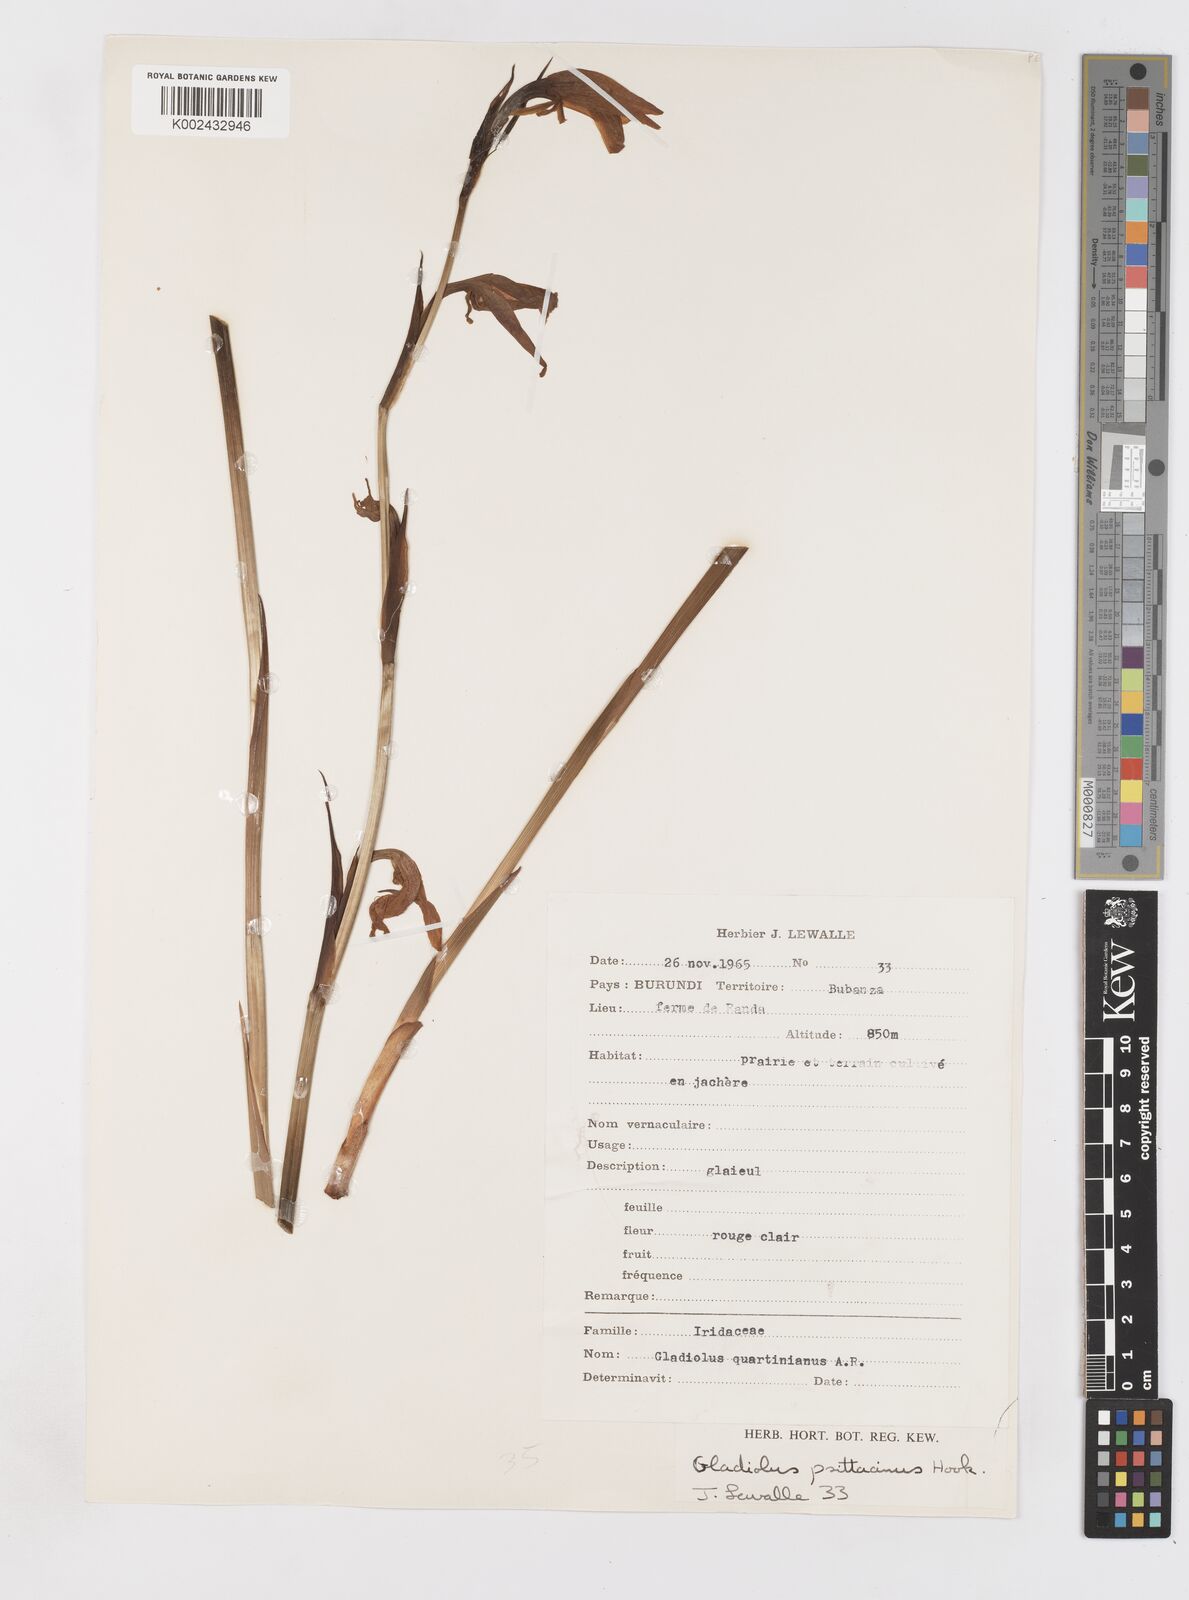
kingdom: Plantae
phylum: Tracheophyta
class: Liliopsida
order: Asparagales
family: Iridaceae
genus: Gladiolus
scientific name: Gladiolus dalenii
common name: Cornflag
